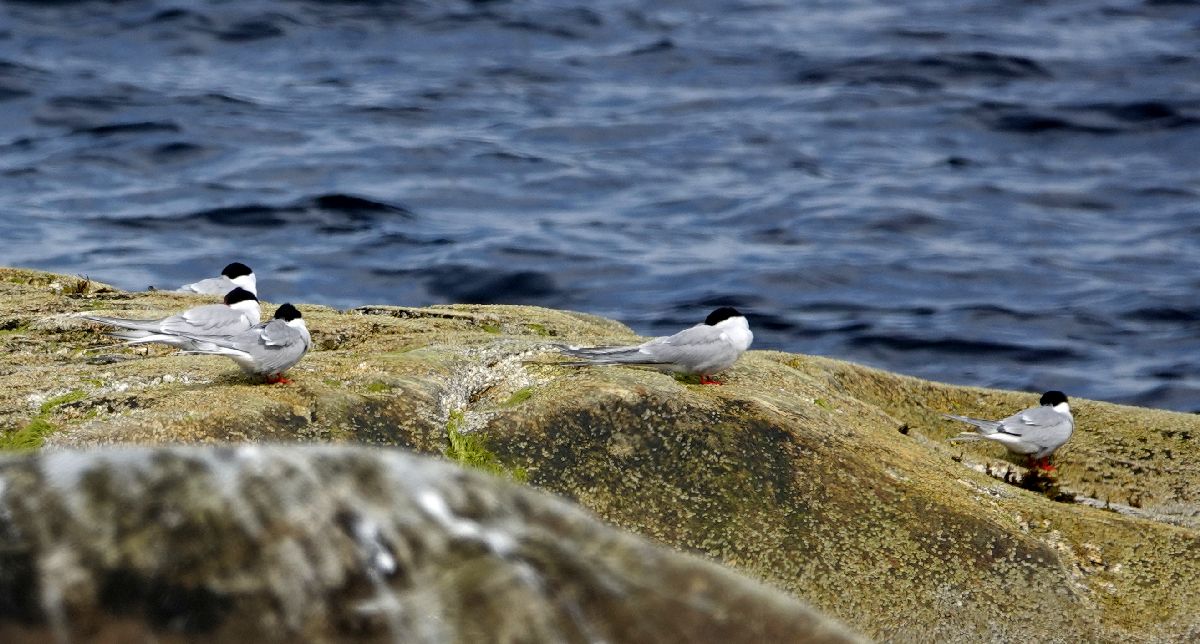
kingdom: Animalia
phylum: Chordata
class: Aves
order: Charadriiformes
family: Laridae
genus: Sterna
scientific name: Sterna paradisaea
